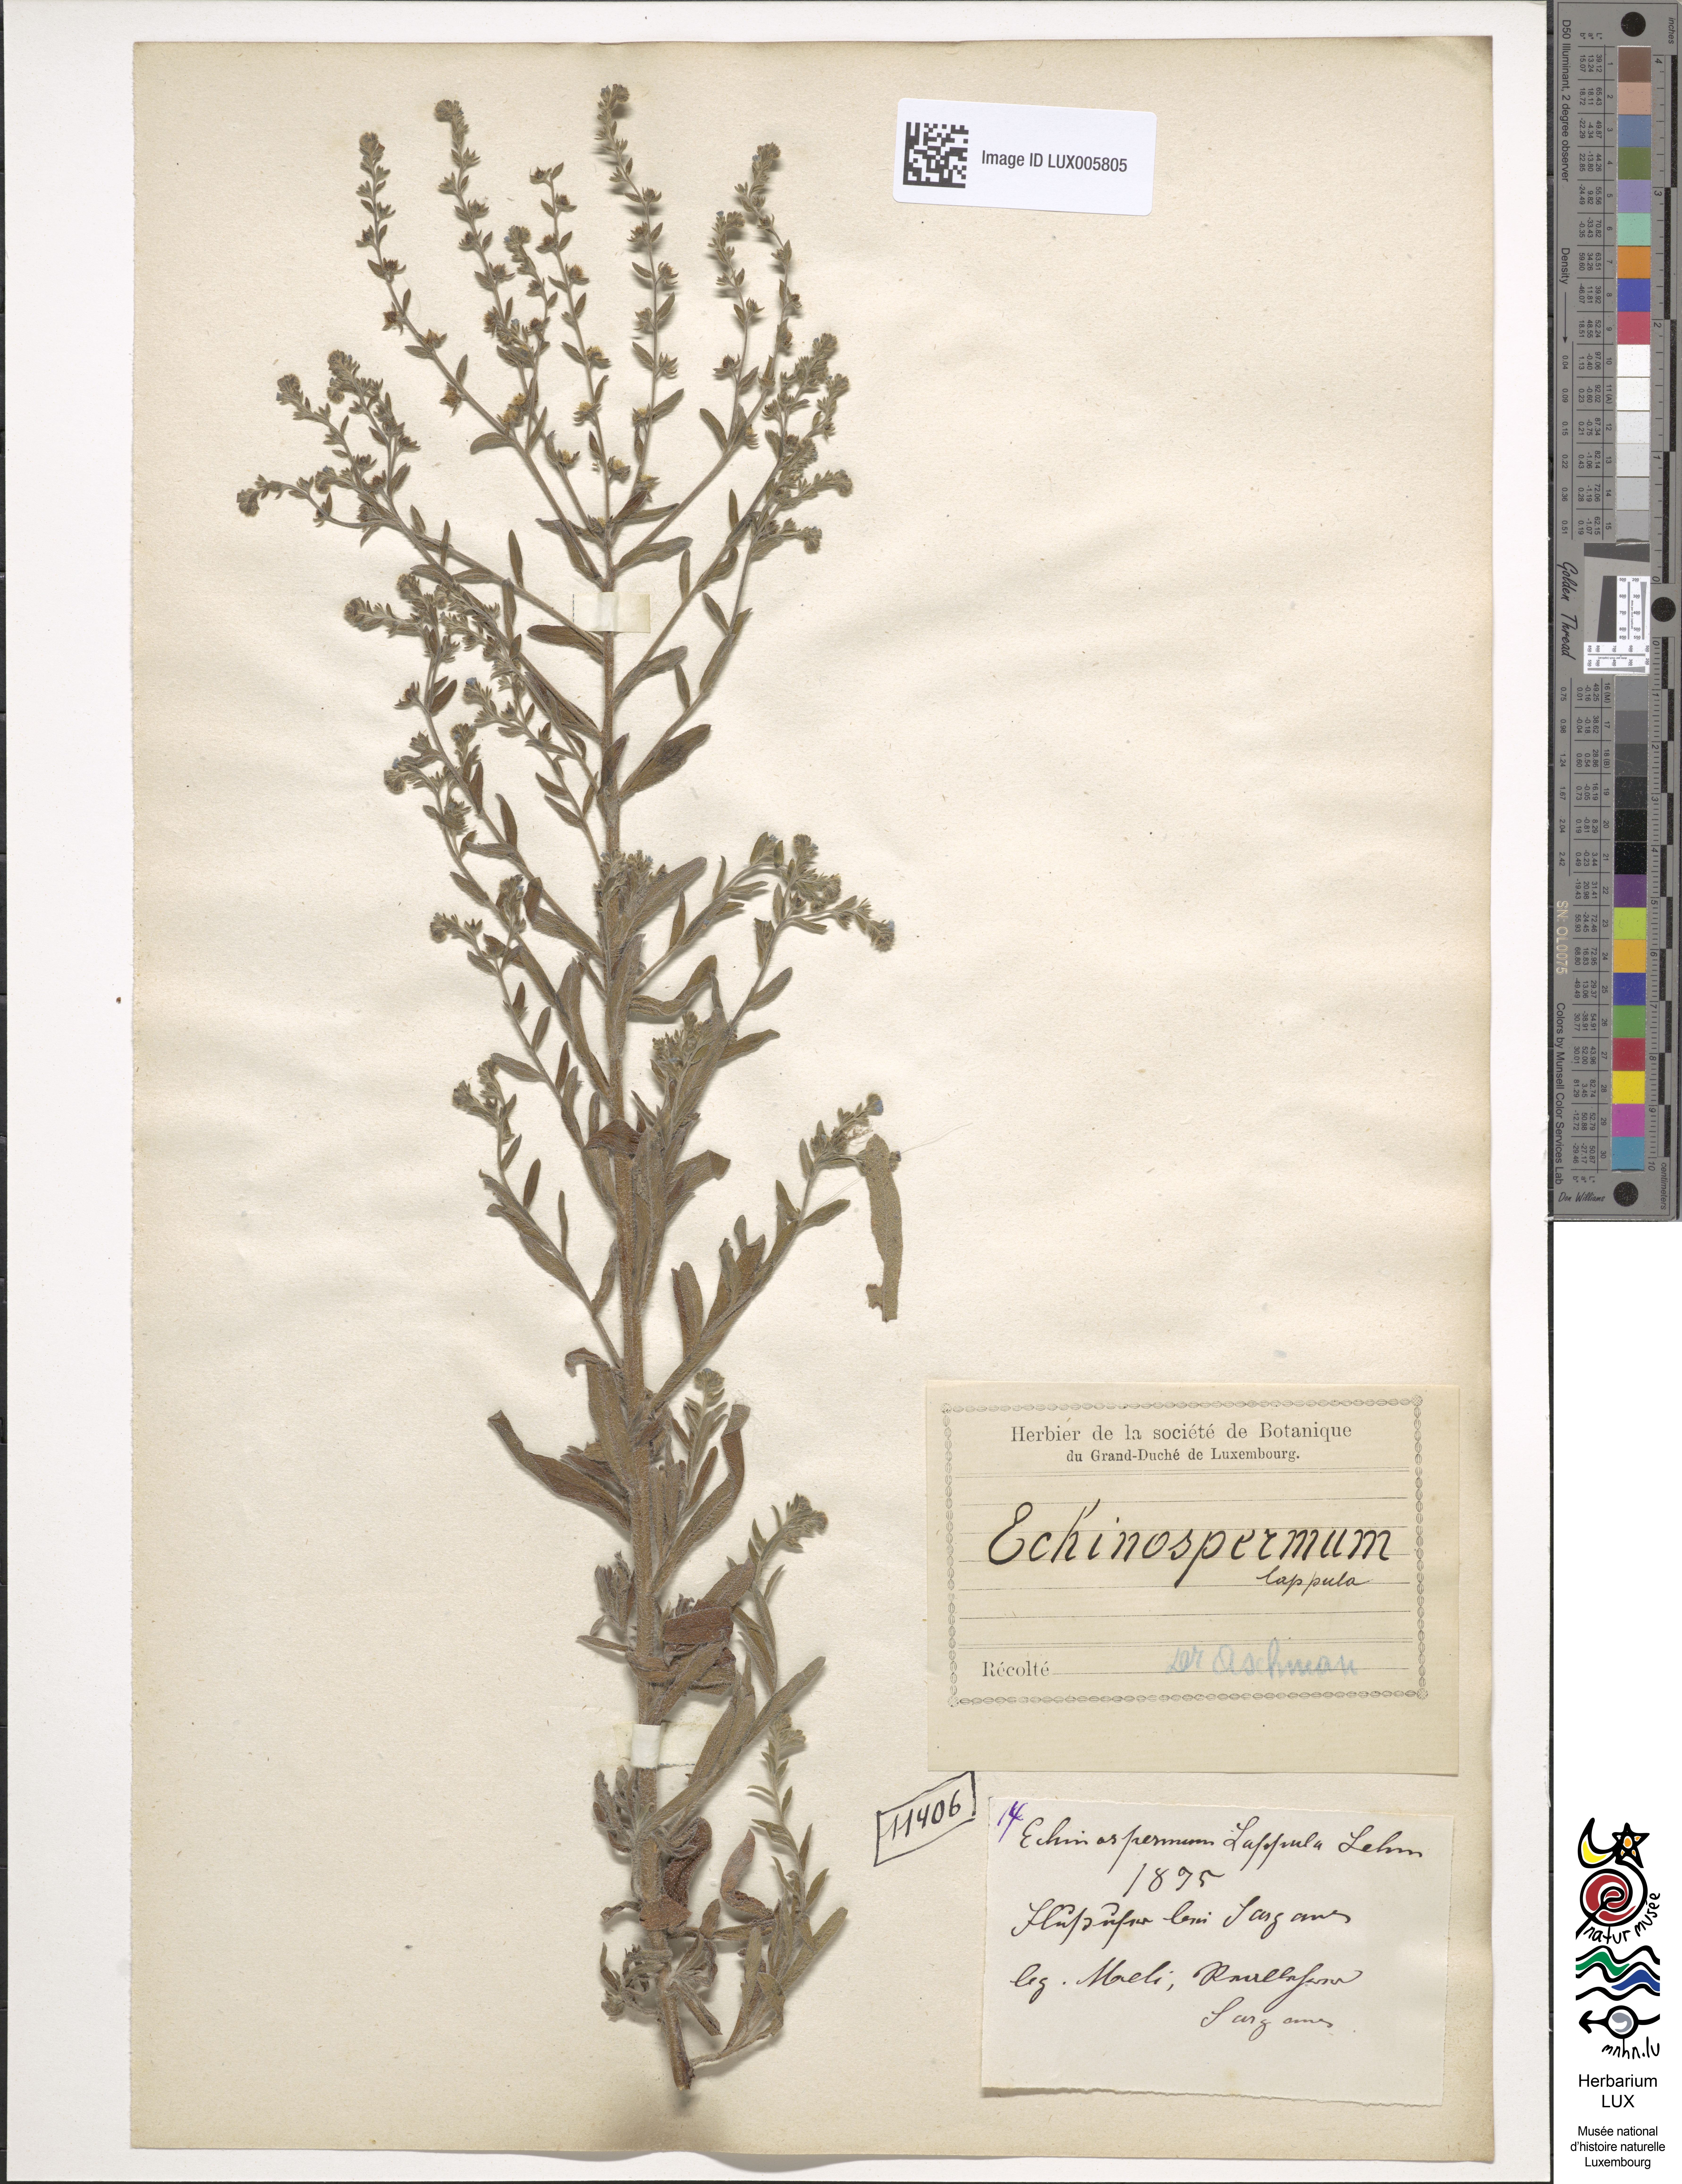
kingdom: Plantae
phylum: Tracheophyta
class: Magnoliopsida
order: Boraginales
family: Boraginaceae
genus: Lappula
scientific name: Lappula squarrosa
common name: European stickseed
